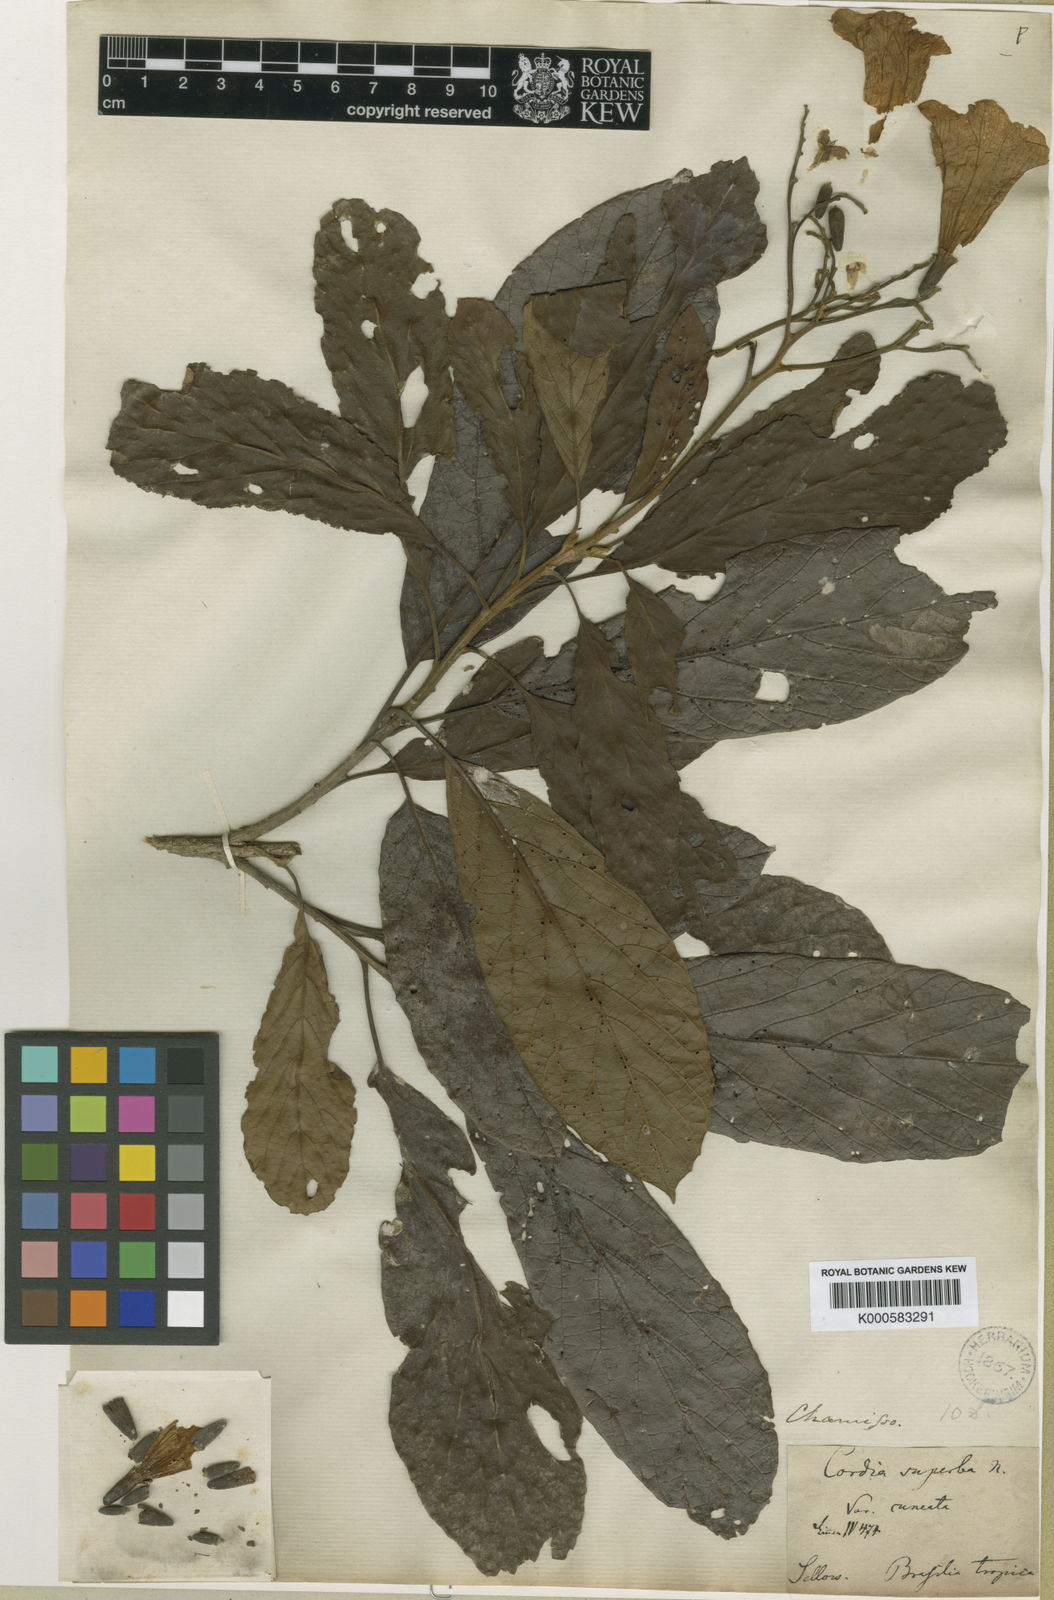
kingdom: Plantae
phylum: Tracheophyta
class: Magnoliopsida
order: Boraginales
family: Cordiaceae
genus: Cordia
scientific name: Cordia superba
